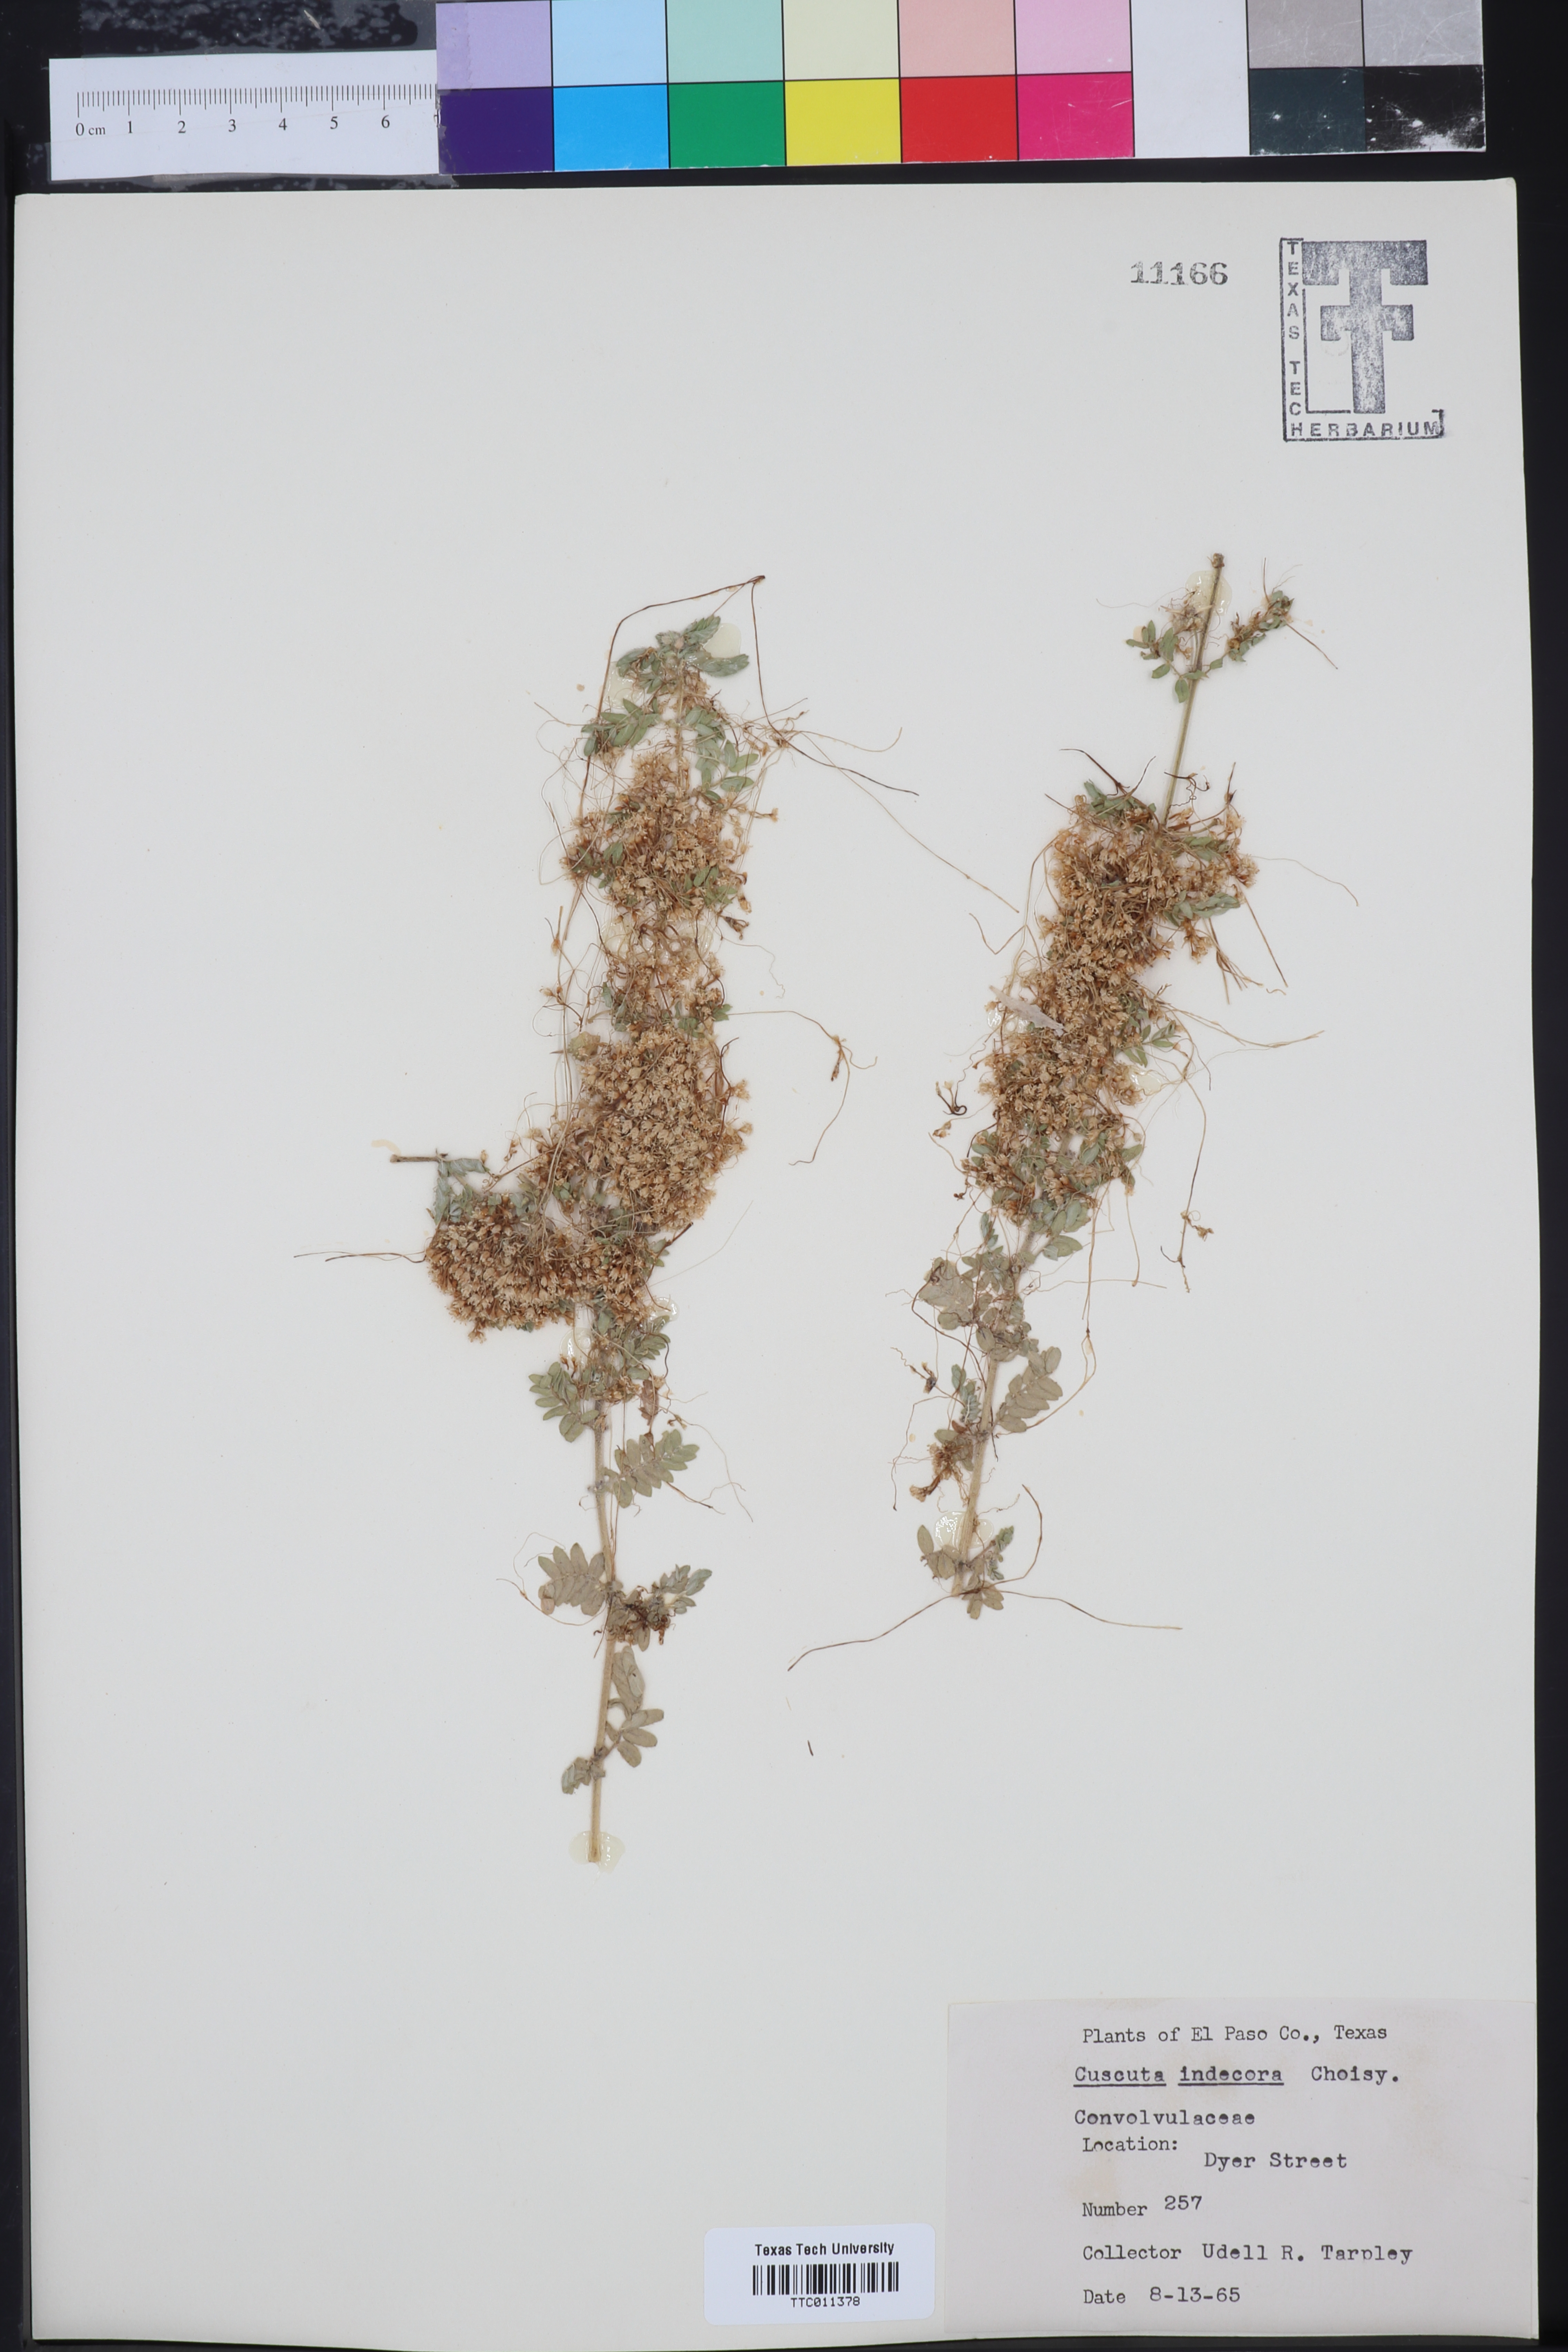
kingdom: Plantae
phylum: Tracheophyta
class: Magnoliopsida
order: Solanales
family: Convolvulaceae
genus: Cuscuta
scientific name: Cuscuta indecora
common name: Large-seed dodder
